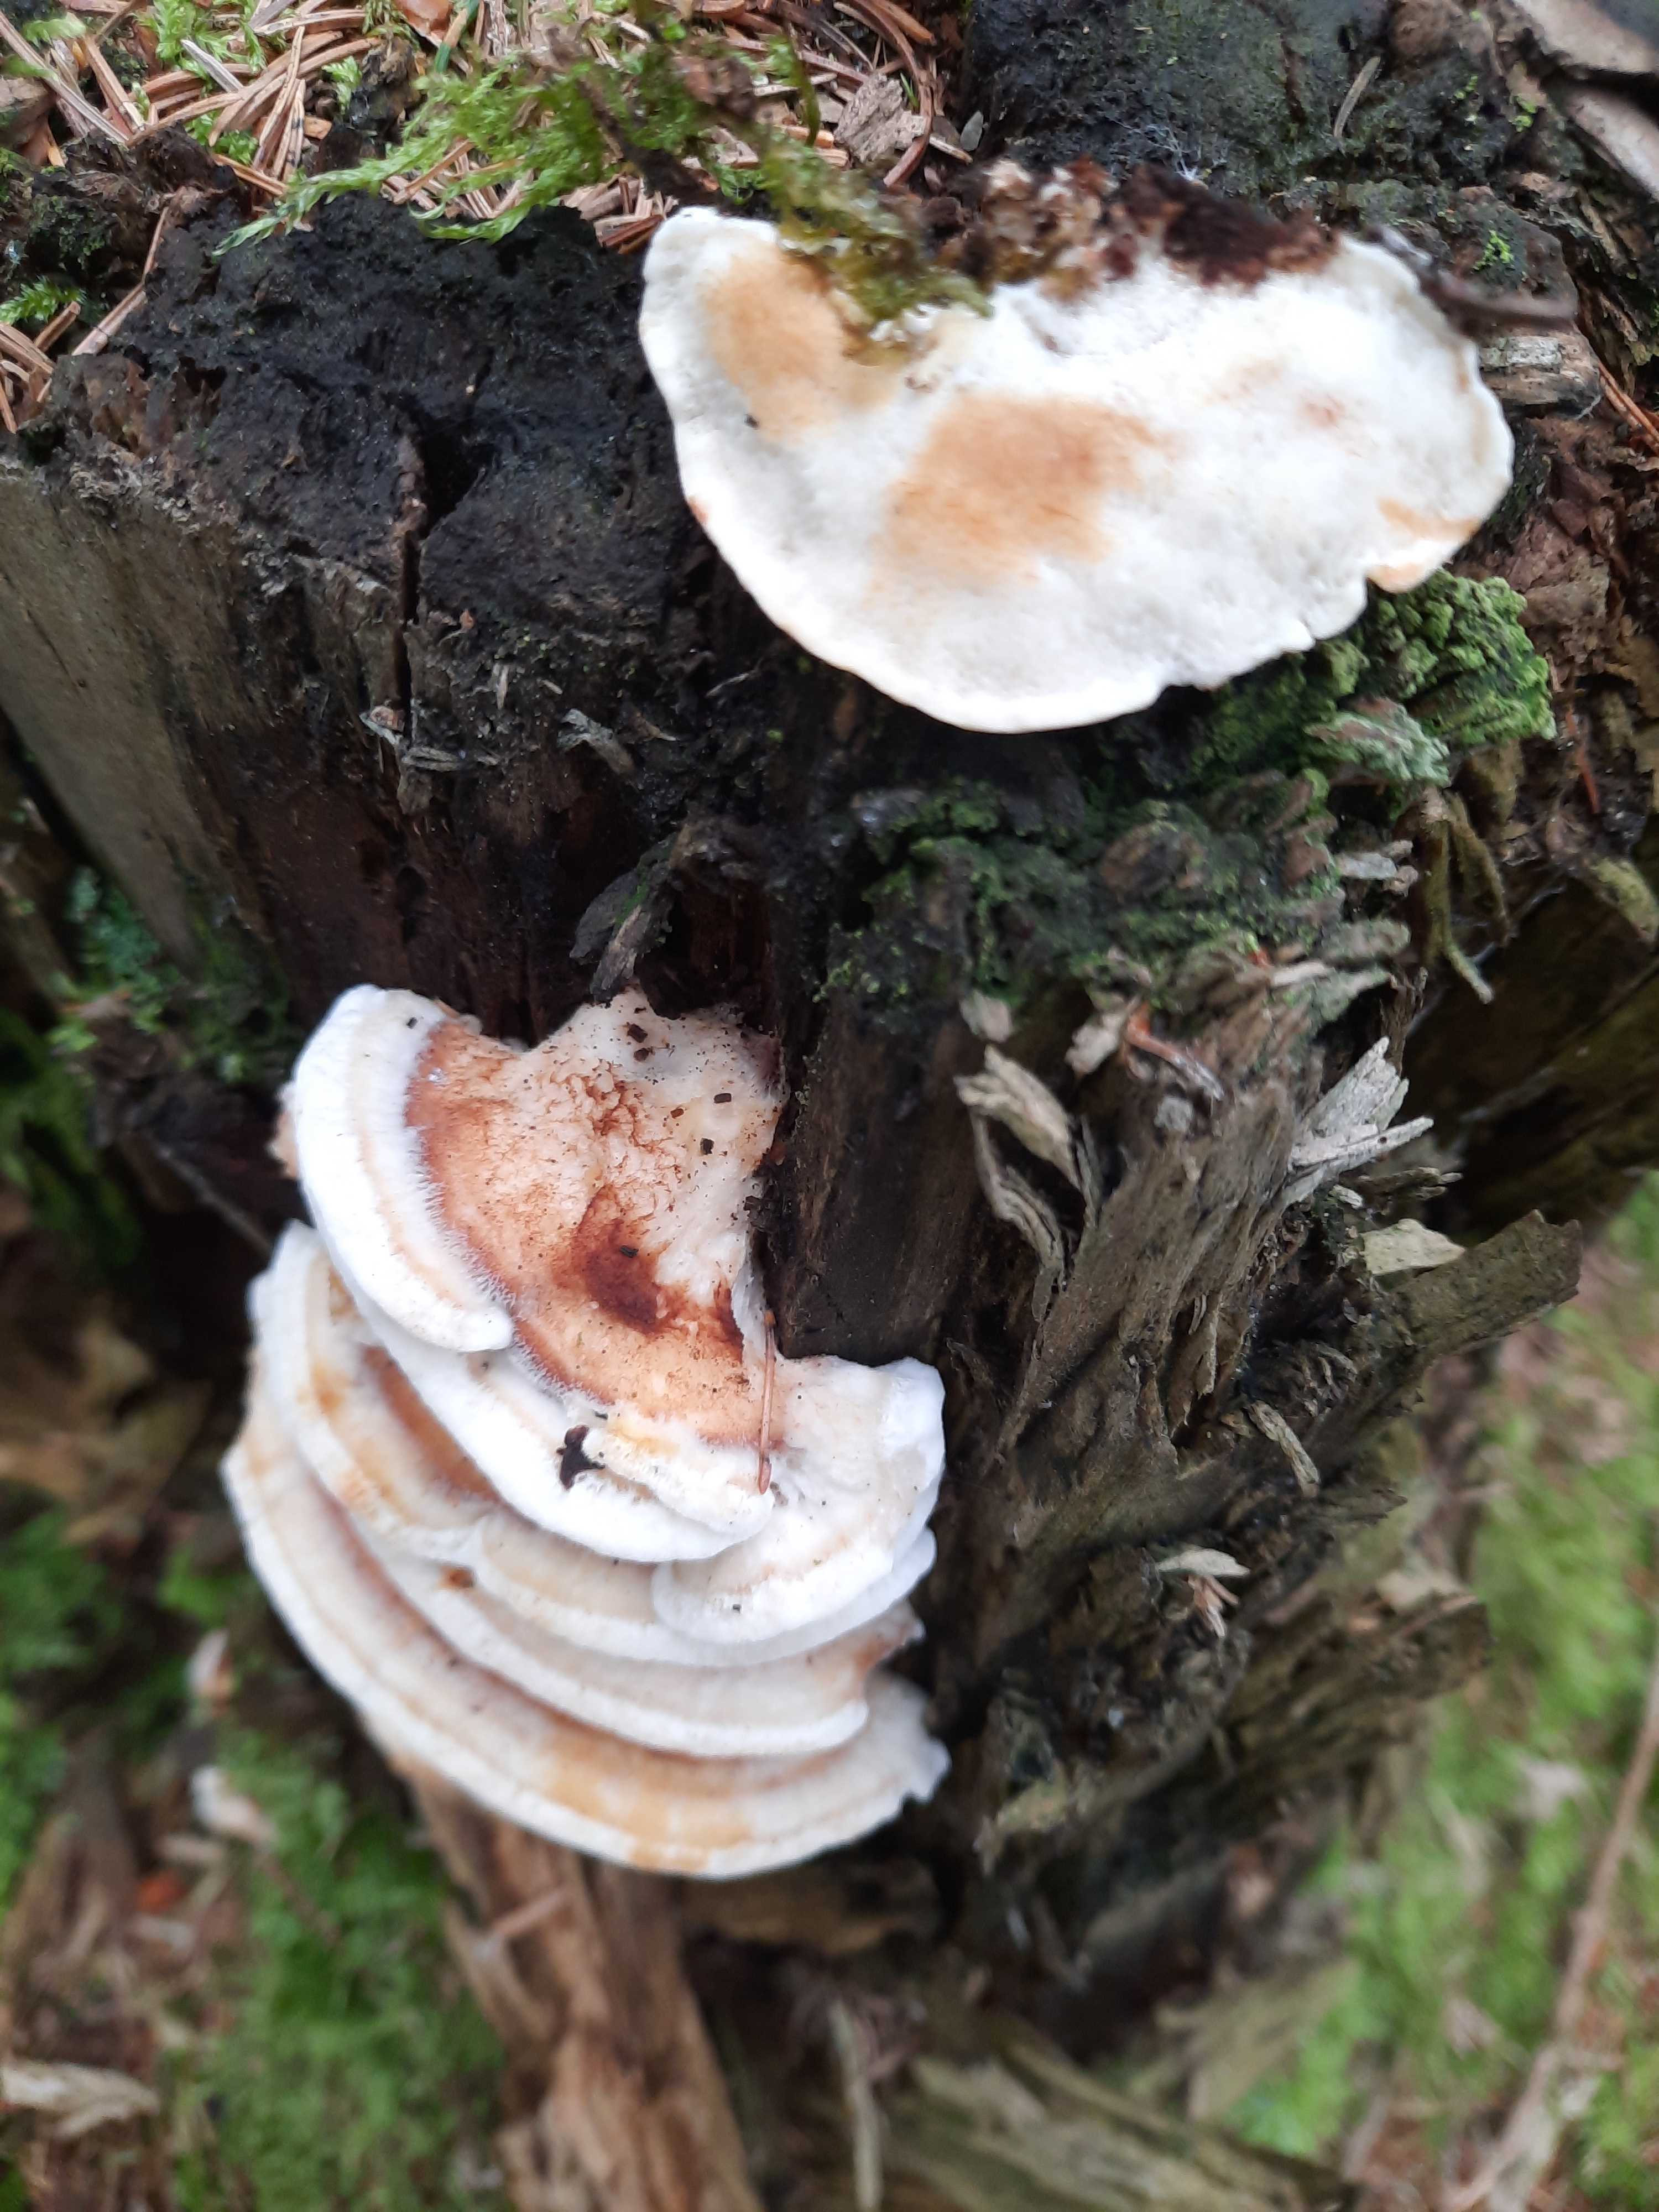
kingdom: Fungi
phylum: Basidiomycota
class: Agaricomycetes
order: Polyporales
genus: Fuscopostia
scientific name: Fuscopostia fragilis
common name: brunende kødporesvamp
